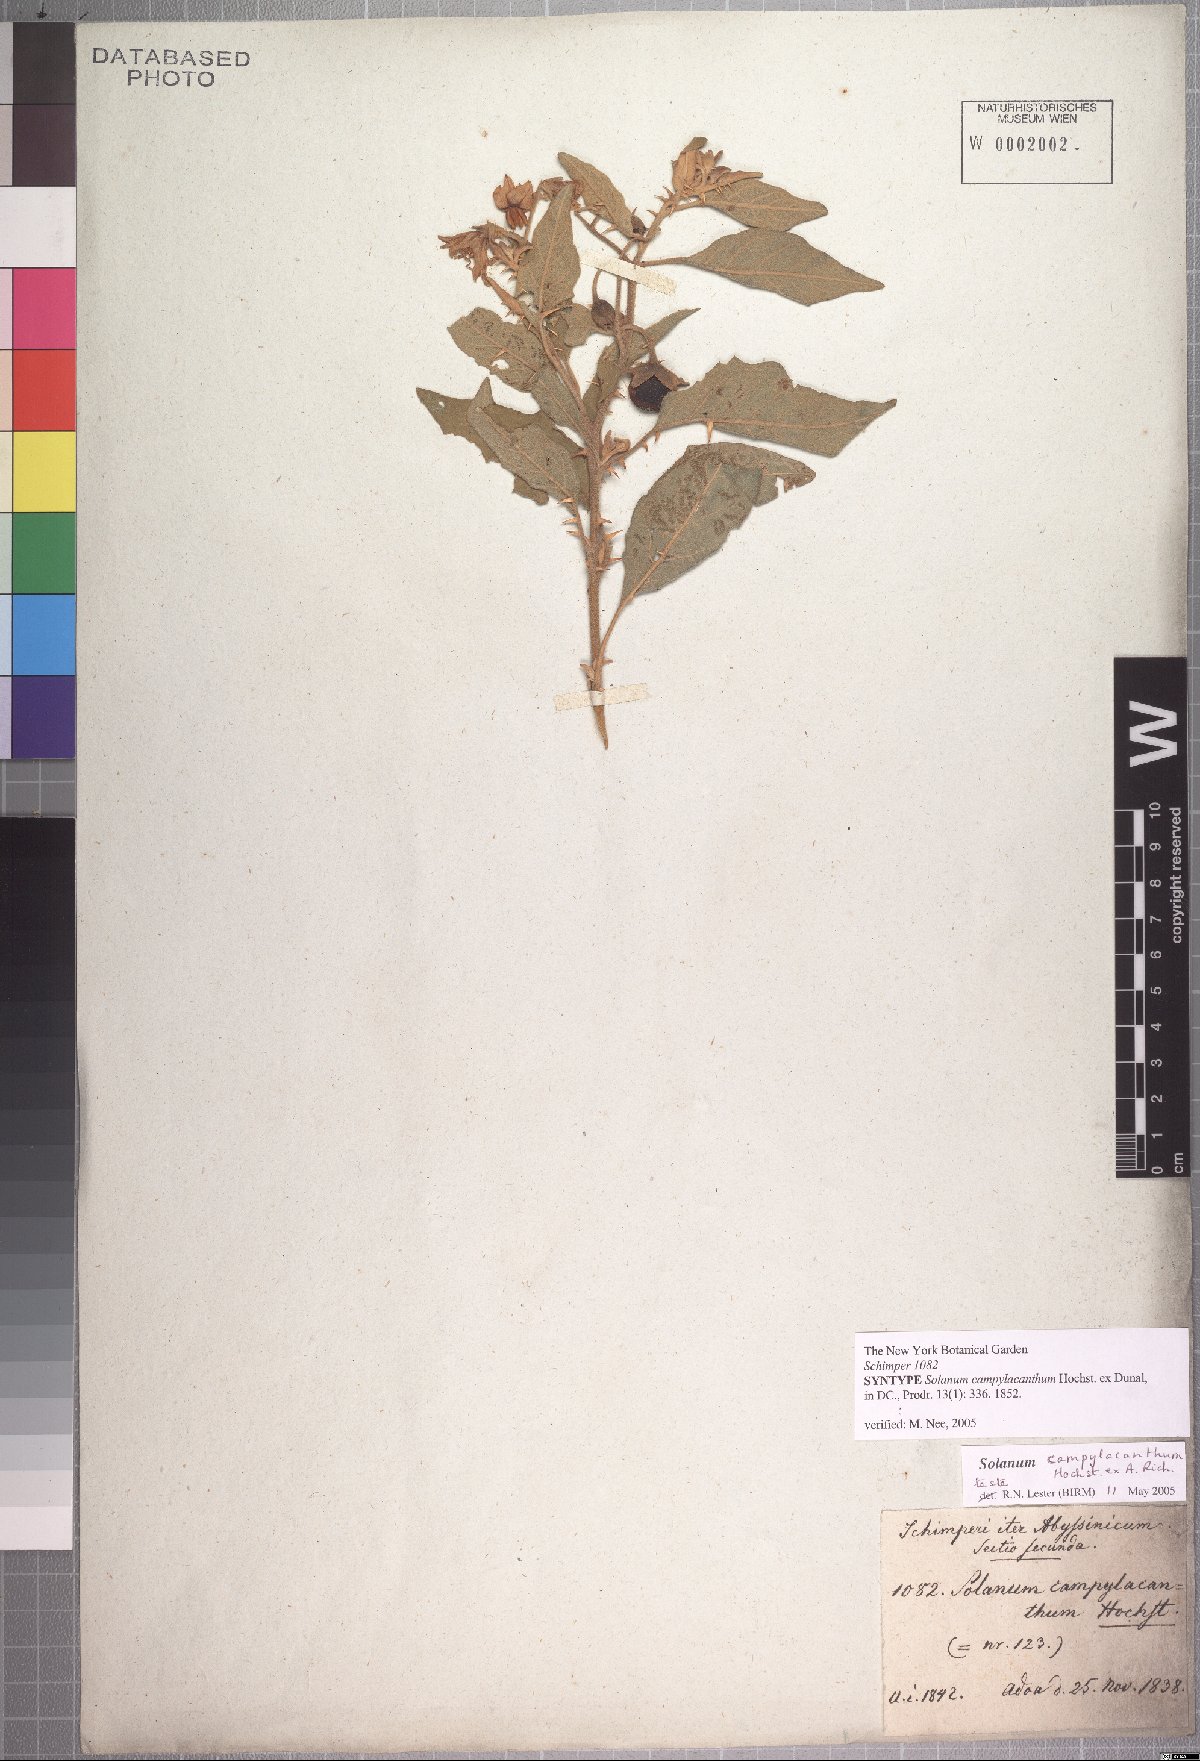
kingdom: Plantae
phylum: Tracheophyta
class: Magnoliopsida
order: Solanales
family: Solanaceae
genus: Solanum
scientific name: Solanum campylacanthum
